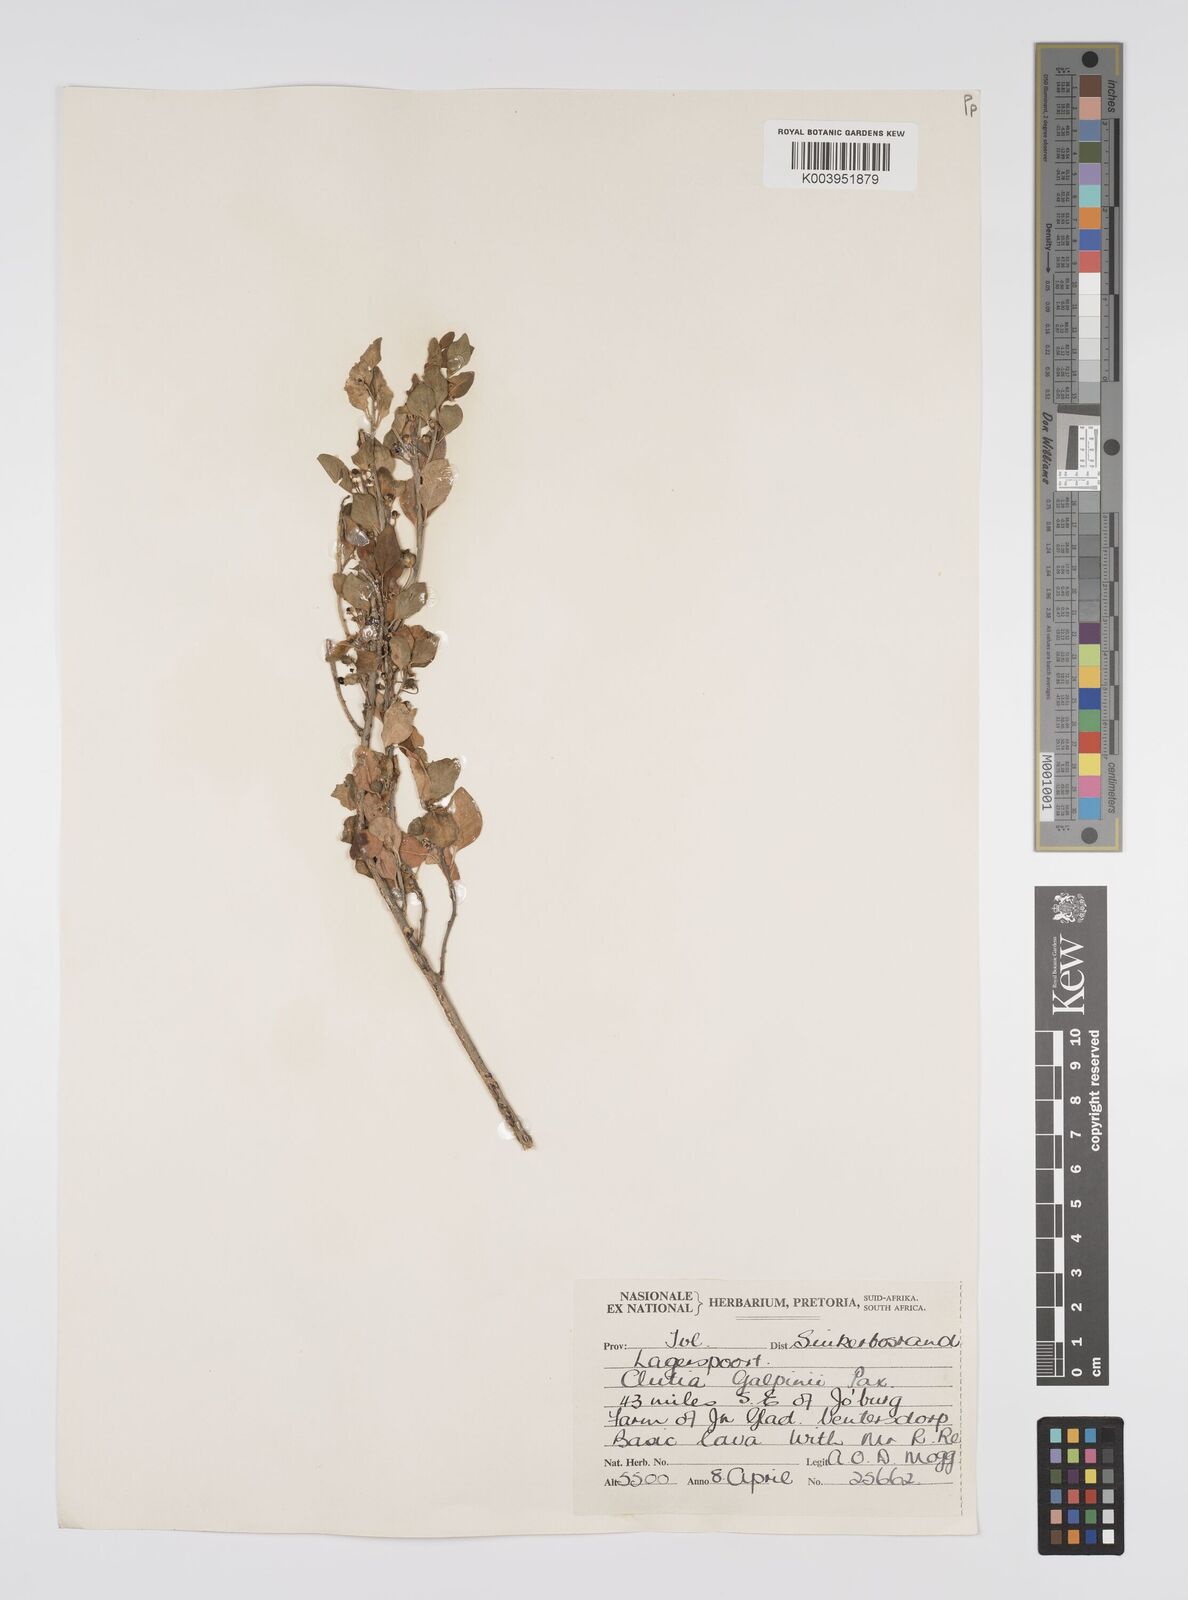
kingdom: Plantae
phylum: Tracheophyta
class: Magnoliopsida
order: Malpighiales
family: Peraceae
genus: Clutia
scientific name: Clutia galpinii
